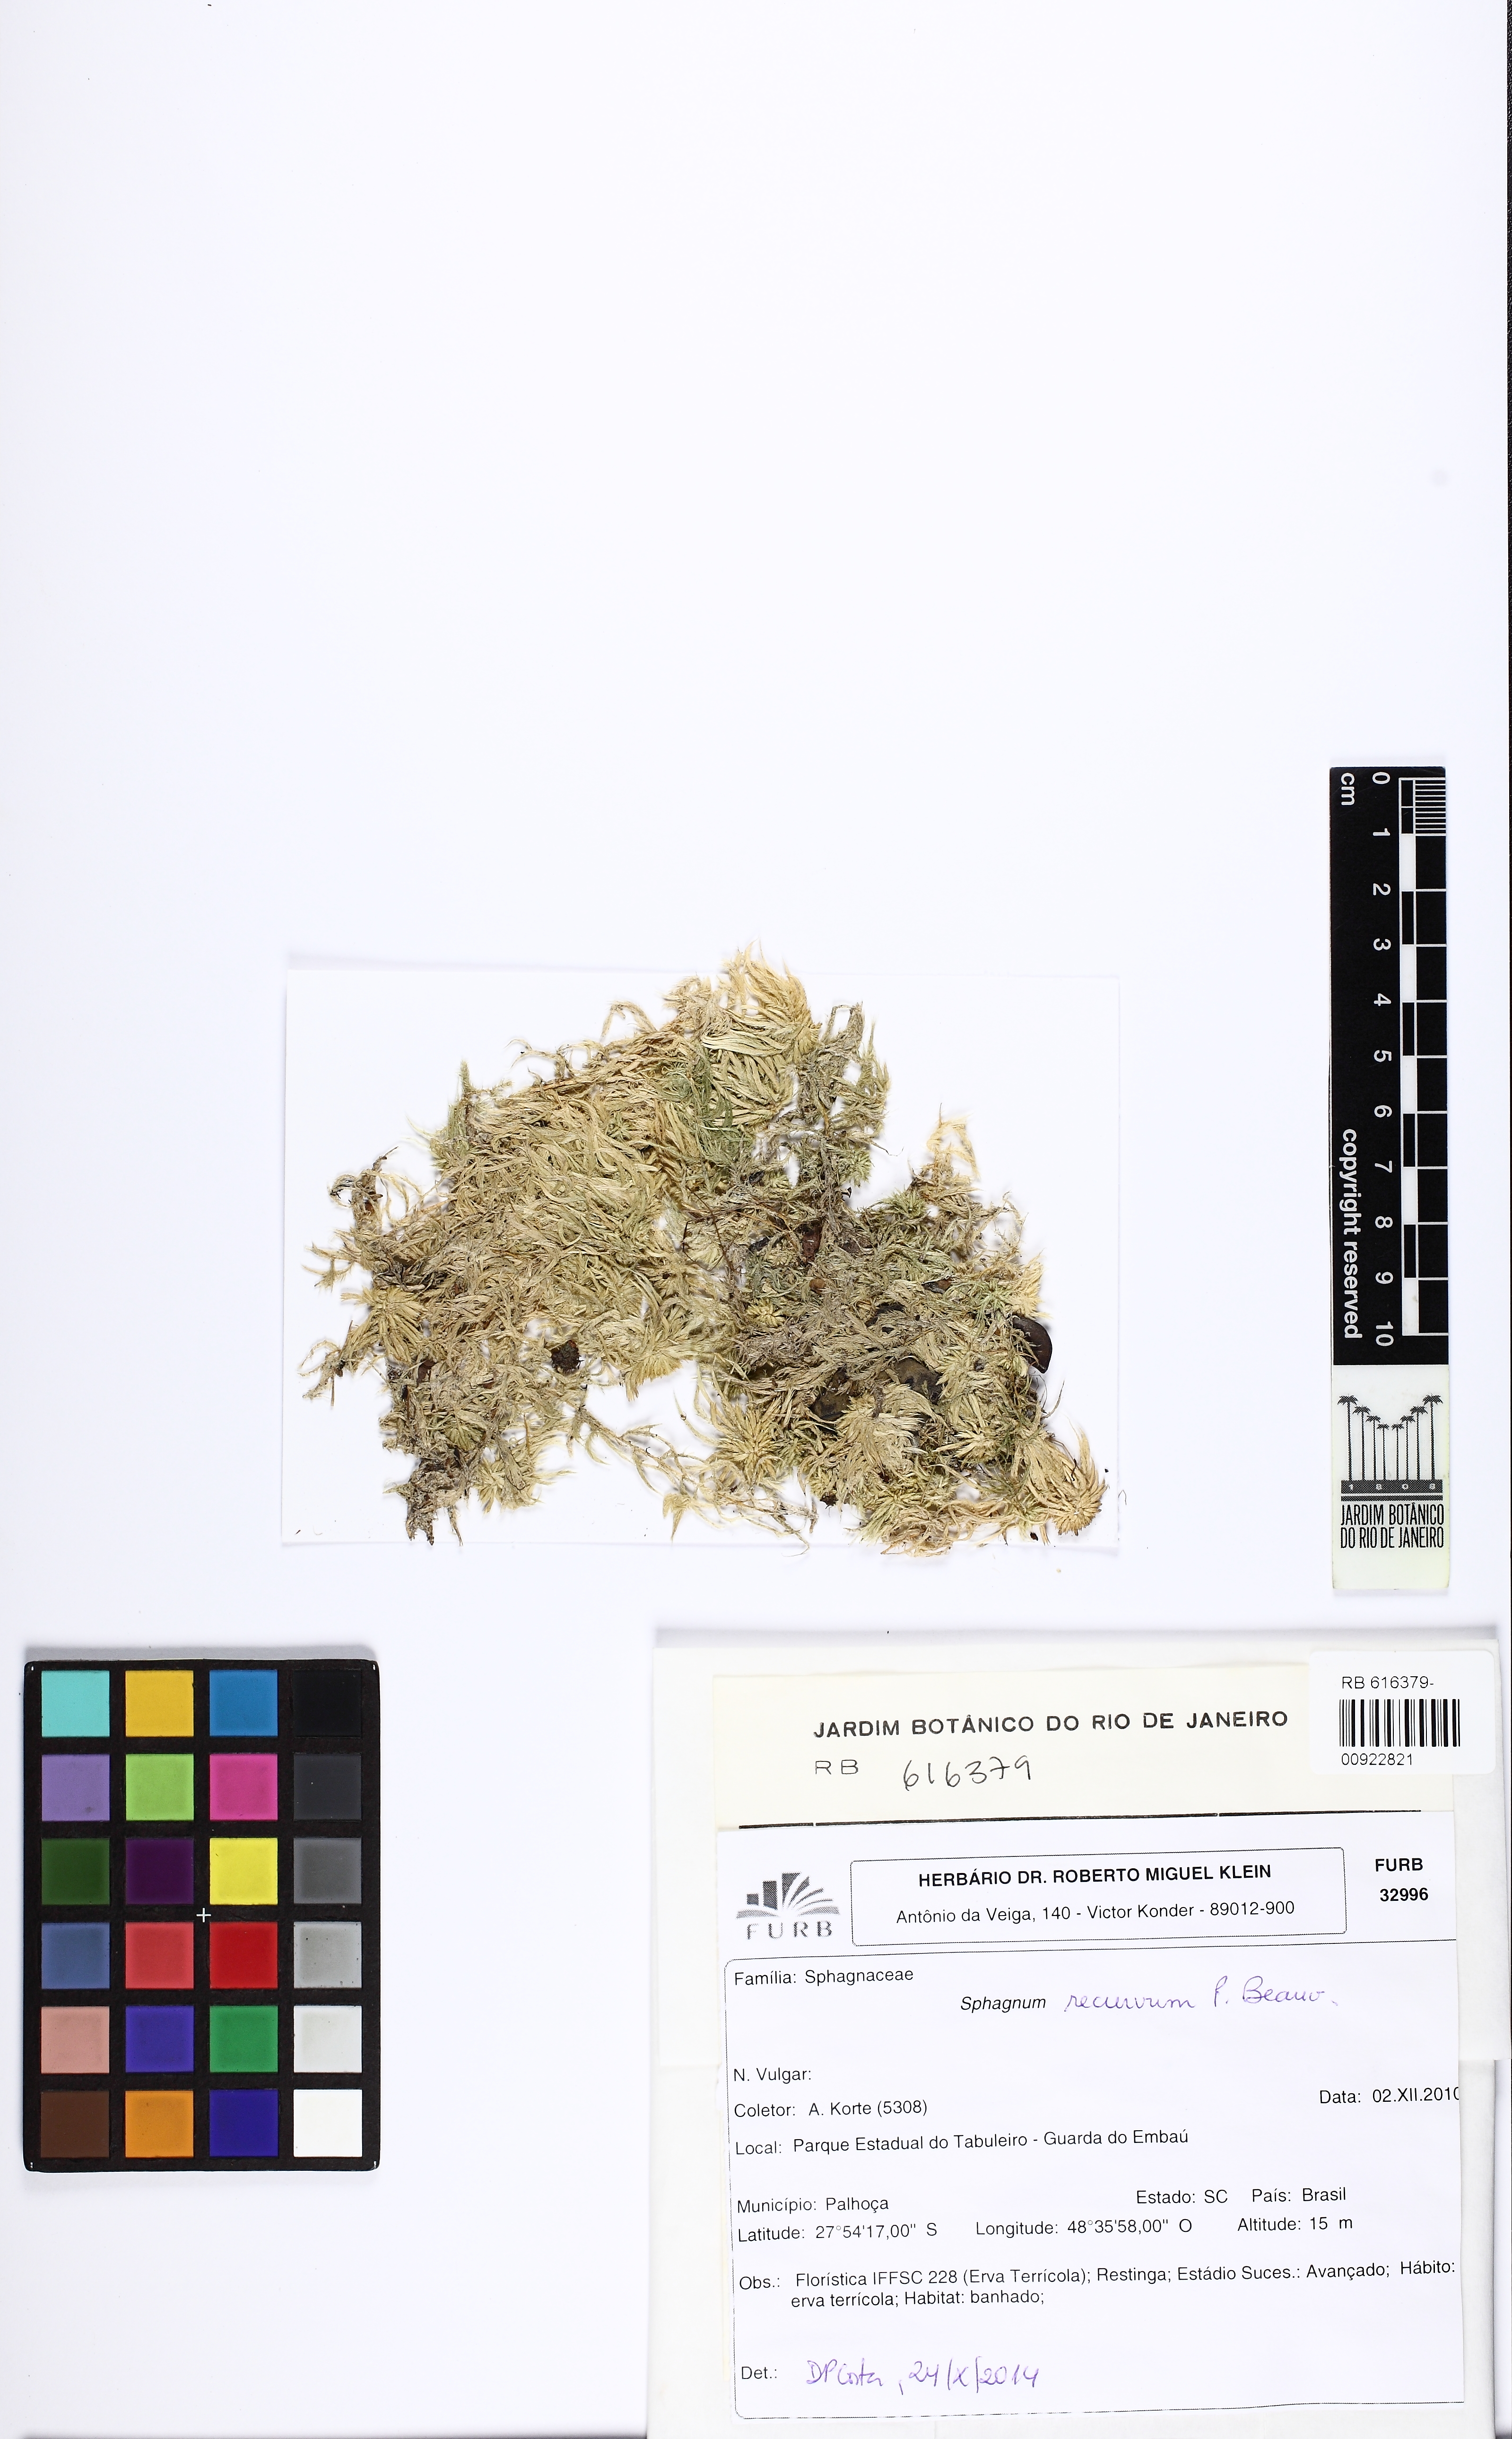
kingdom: Plantae
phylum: Bryophyta
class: Sphagnopsida
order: Sphagnales
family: Sphagnaceae
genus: Sphagnum
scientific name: Sphagnum recurvum
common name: Recurved peatmoss
